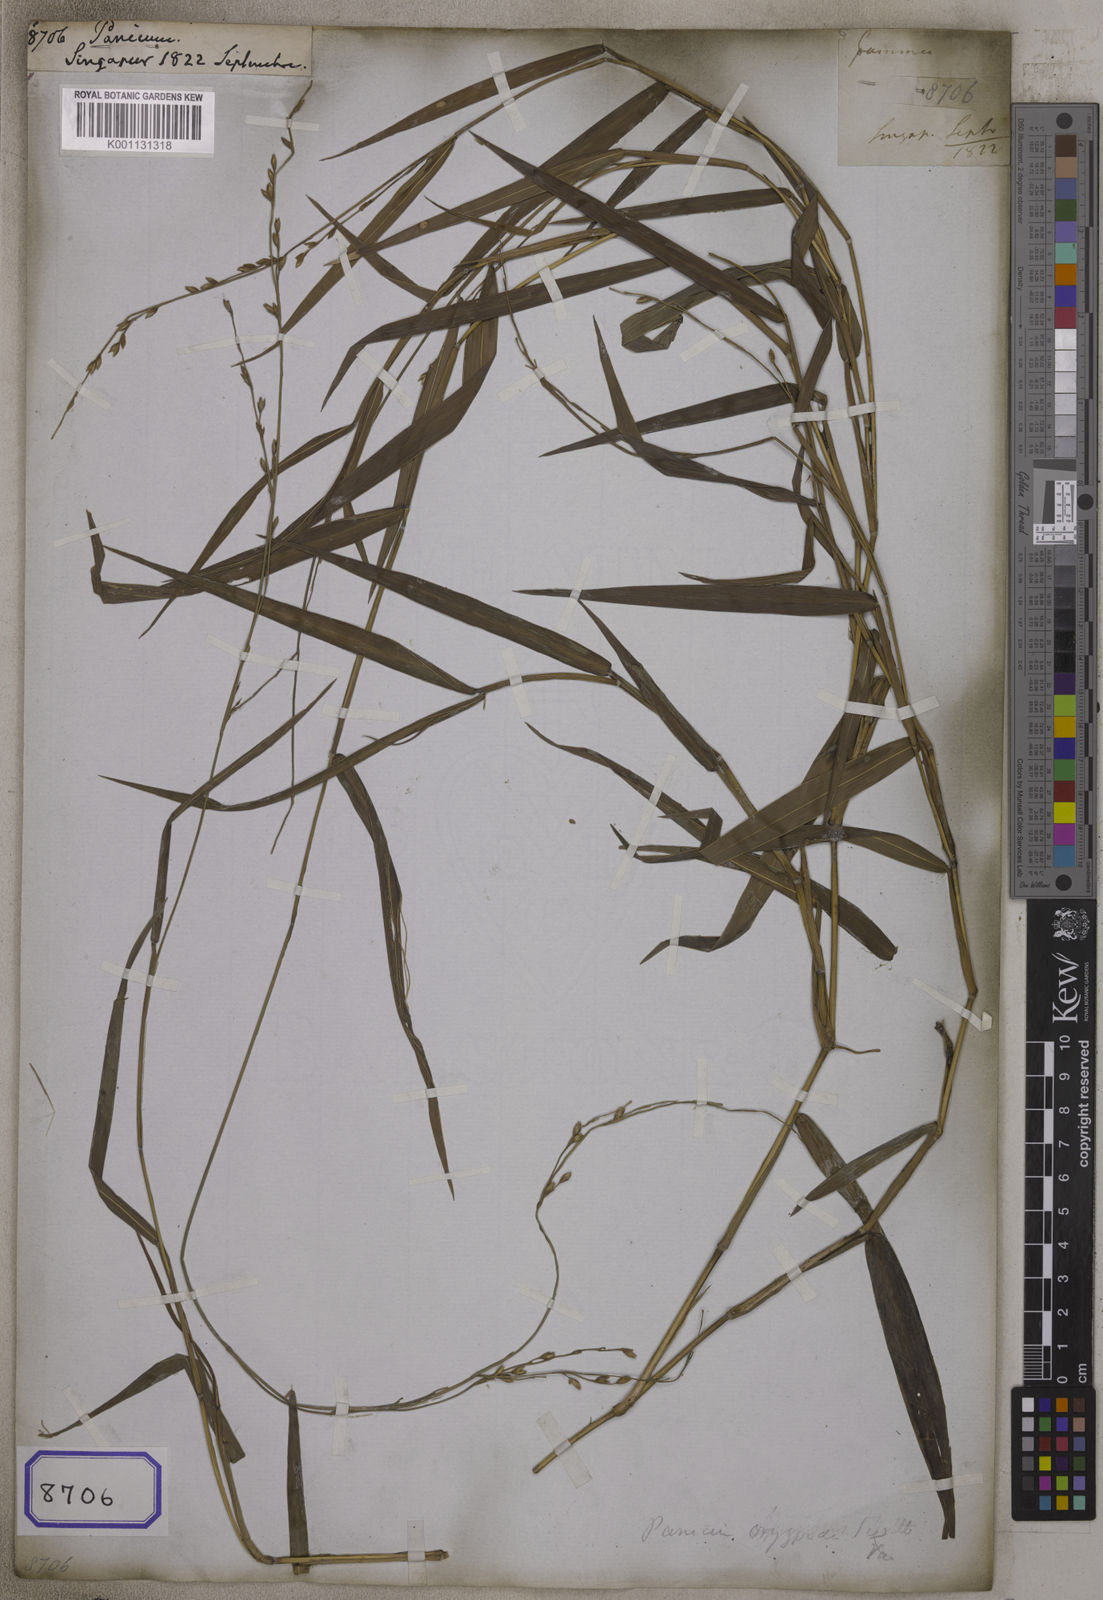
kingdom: Plantae
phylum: Tracheophyta
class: Liliopsida
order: Poales
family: Poaceae
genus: Panicum
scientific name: Panicum
